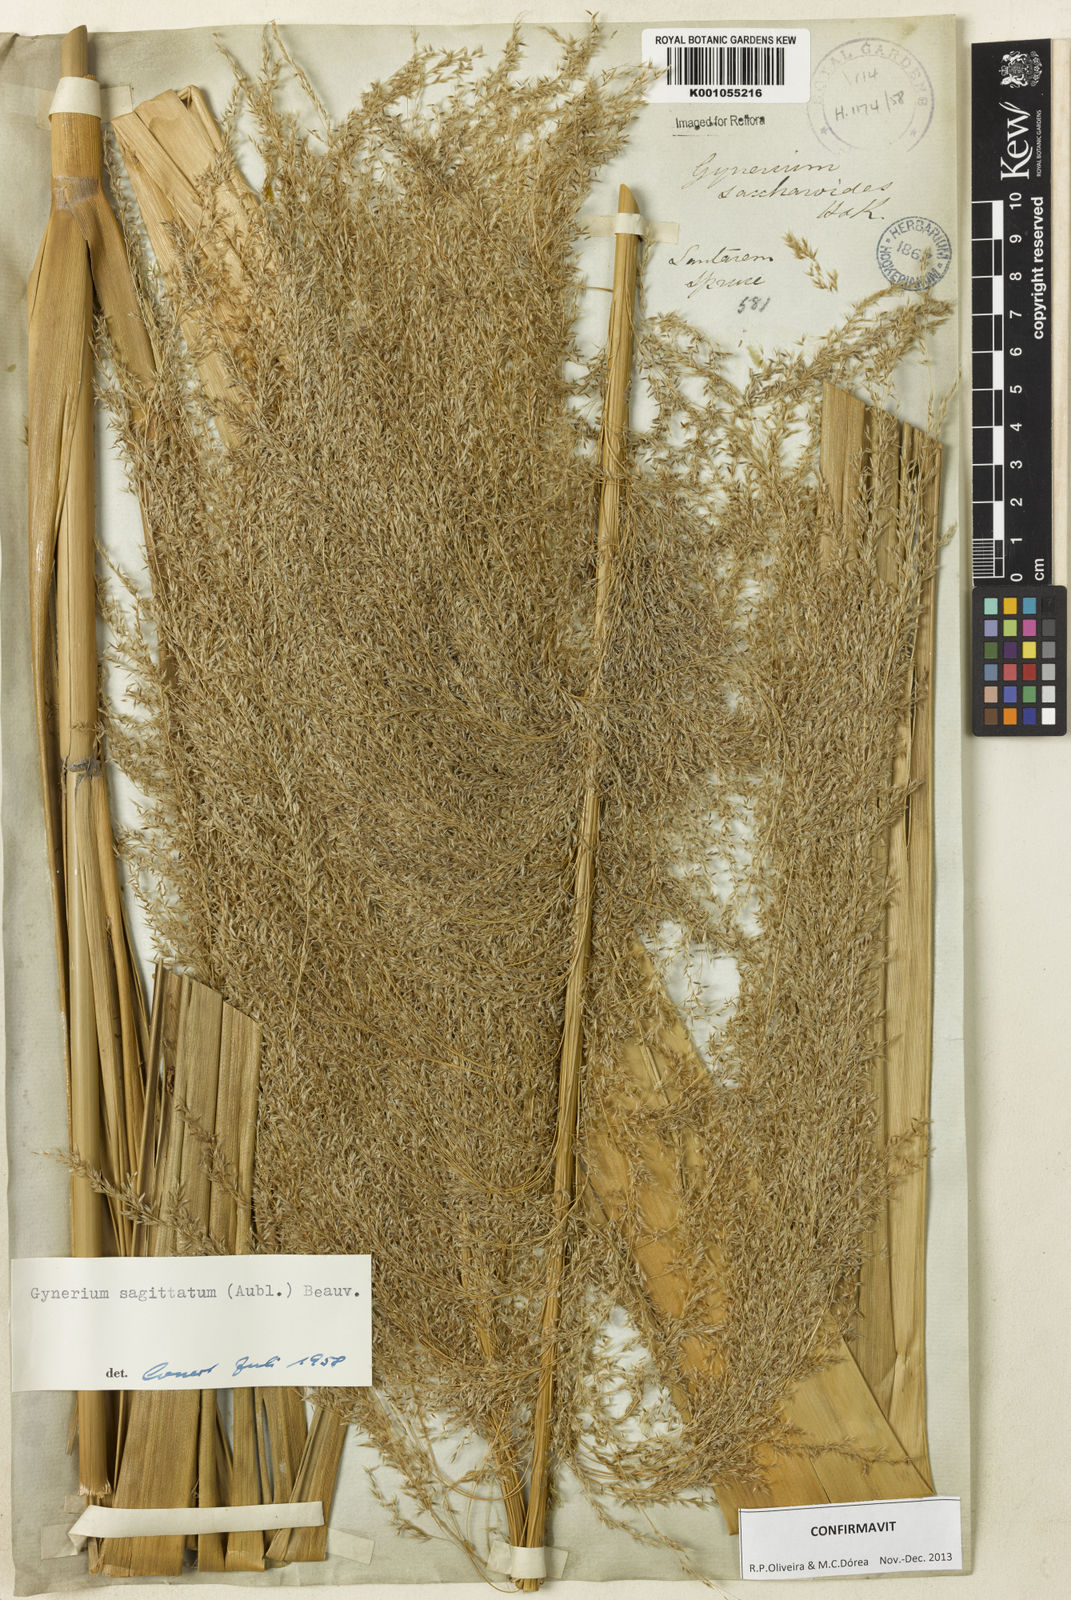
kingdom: Plantae
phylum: Tracheophyta
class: Liliopsida
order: Poales
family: Poaceae
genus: Gynerium
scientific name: Gynerium sagittatum
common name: Wild cane
